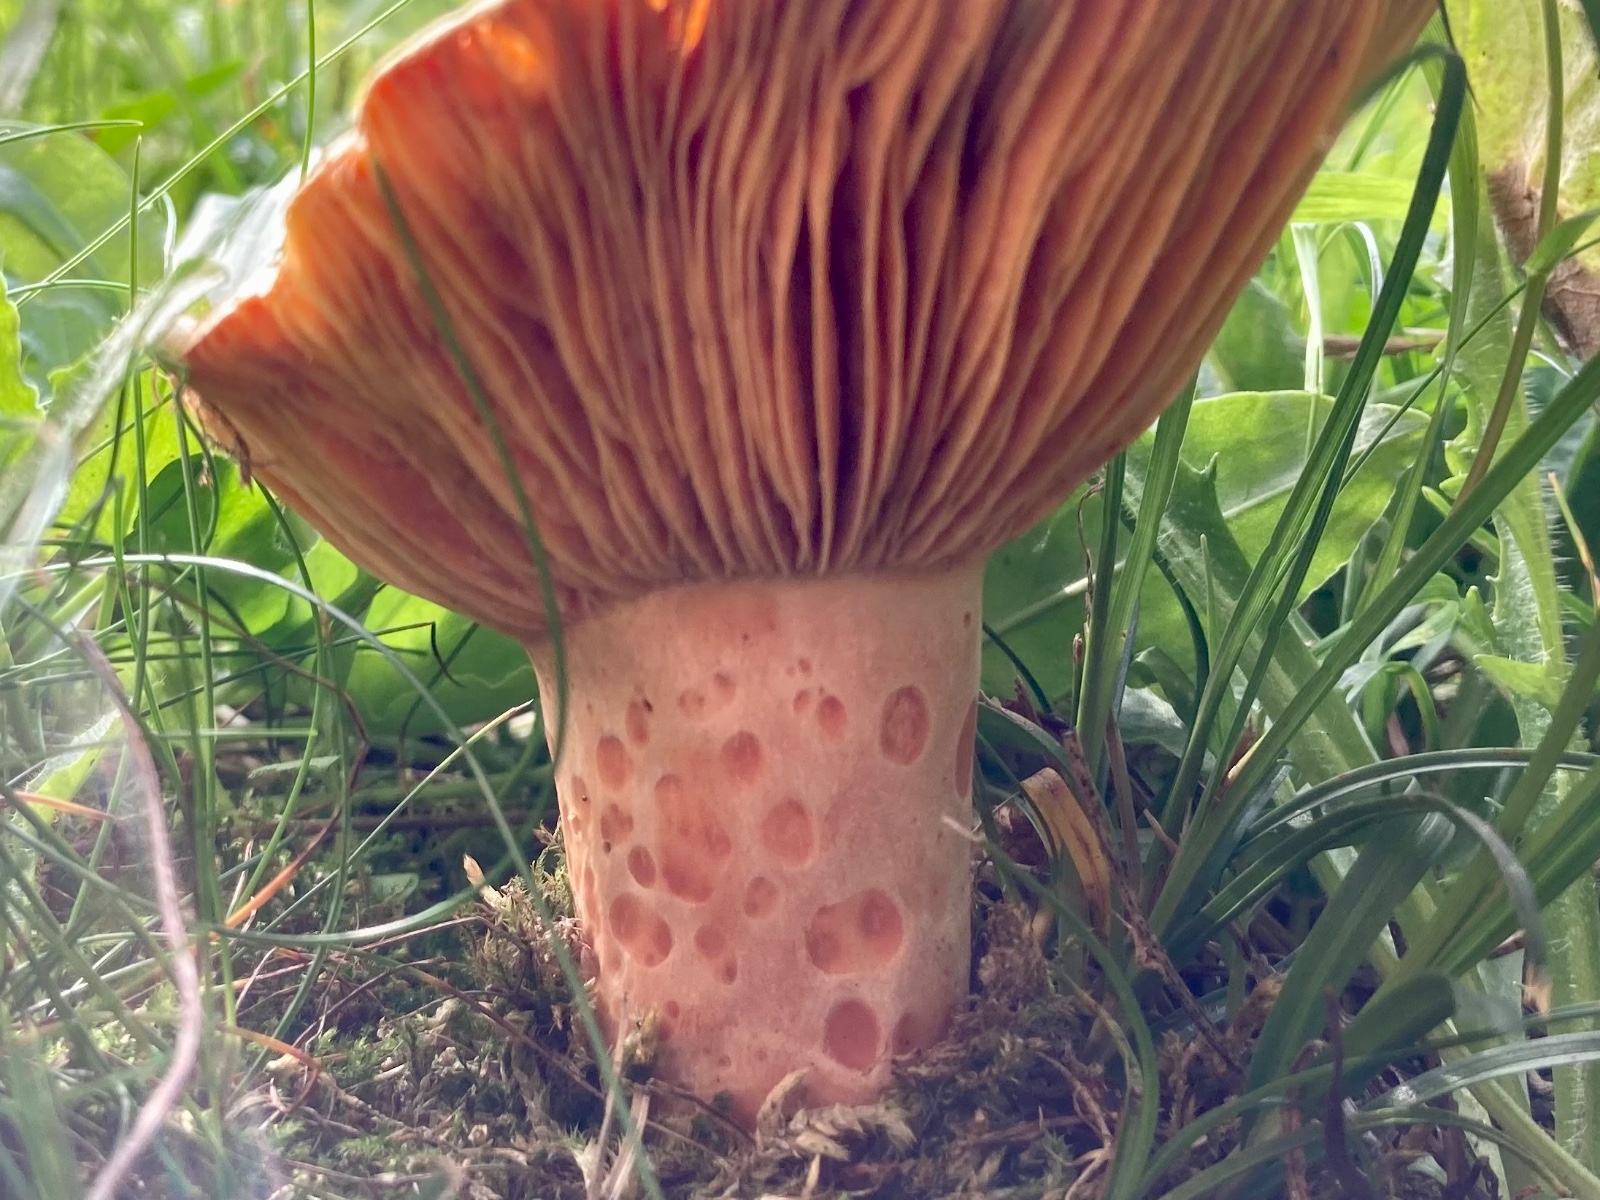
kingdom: Fungi
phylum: Basidiomycota
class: Agaricomycetes
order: Russulales
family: Russulaceae
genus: Lactarius
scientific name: Lactarius deliciosus
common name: velsmagende mælkehat
